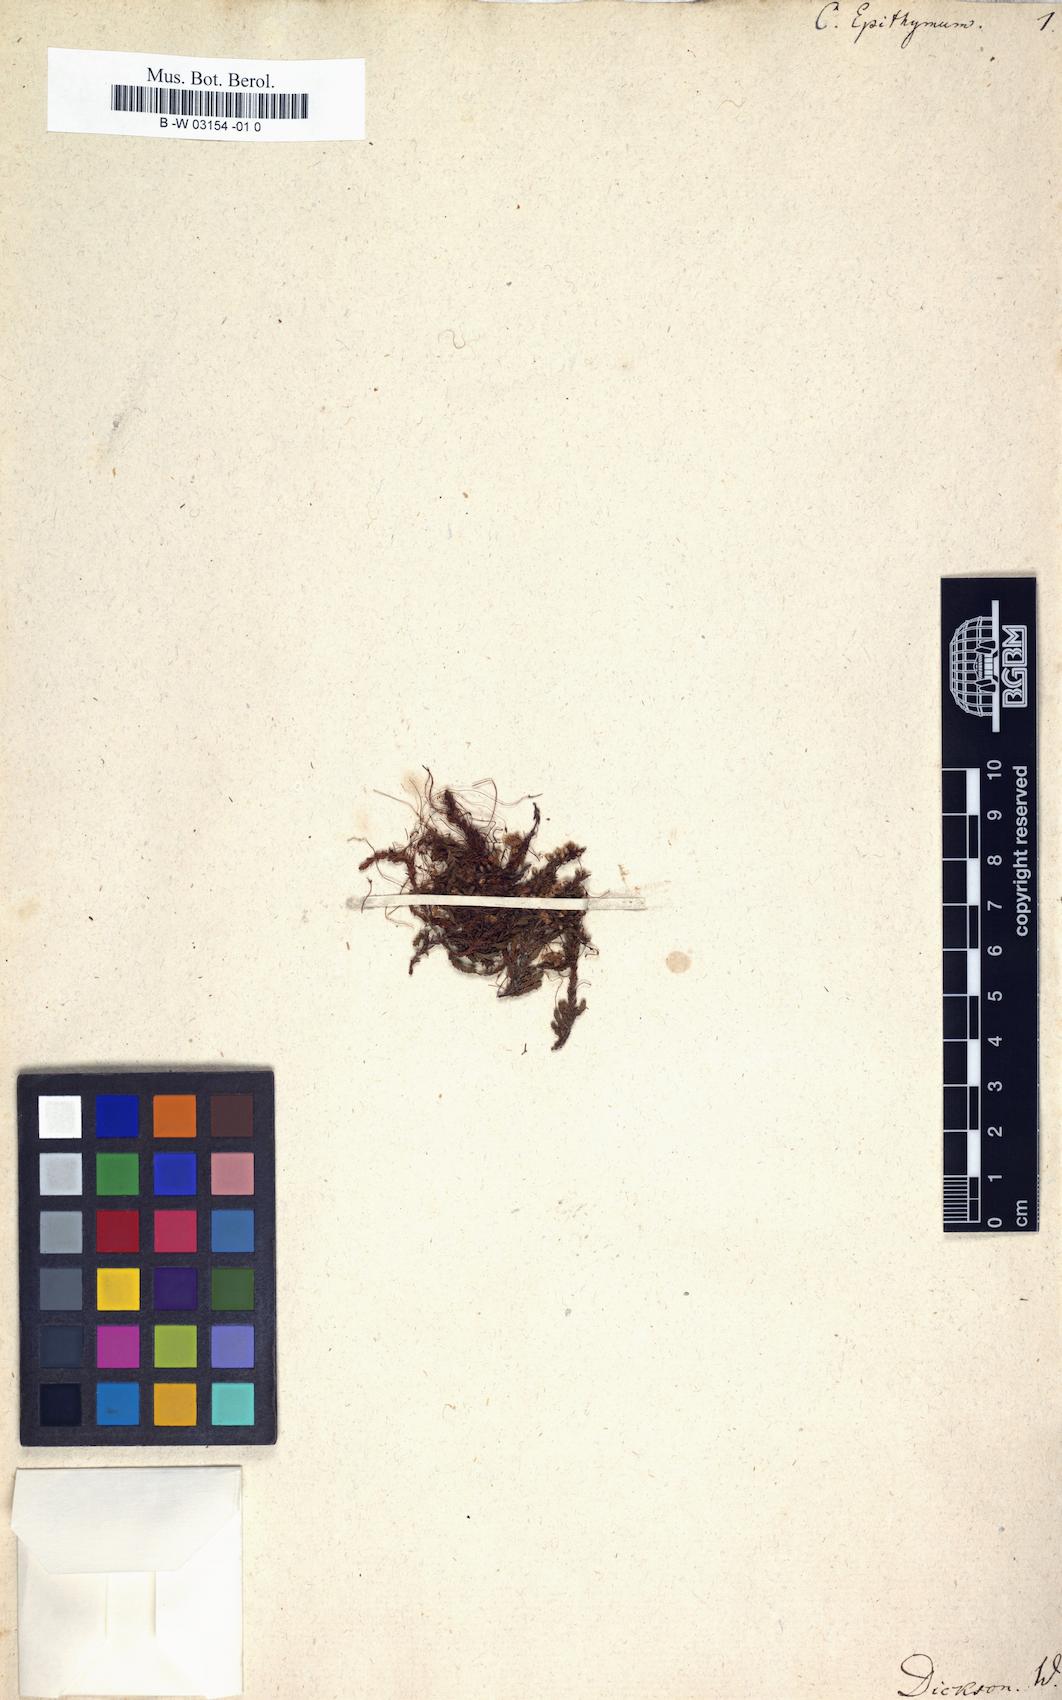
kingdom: Plantae
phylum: Tracheophyta
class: Magnoliopsida
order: Solanales
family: Convolvulaceae
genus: Cuscuta
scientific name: Cuscuta epithymum
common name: Clover dodder
